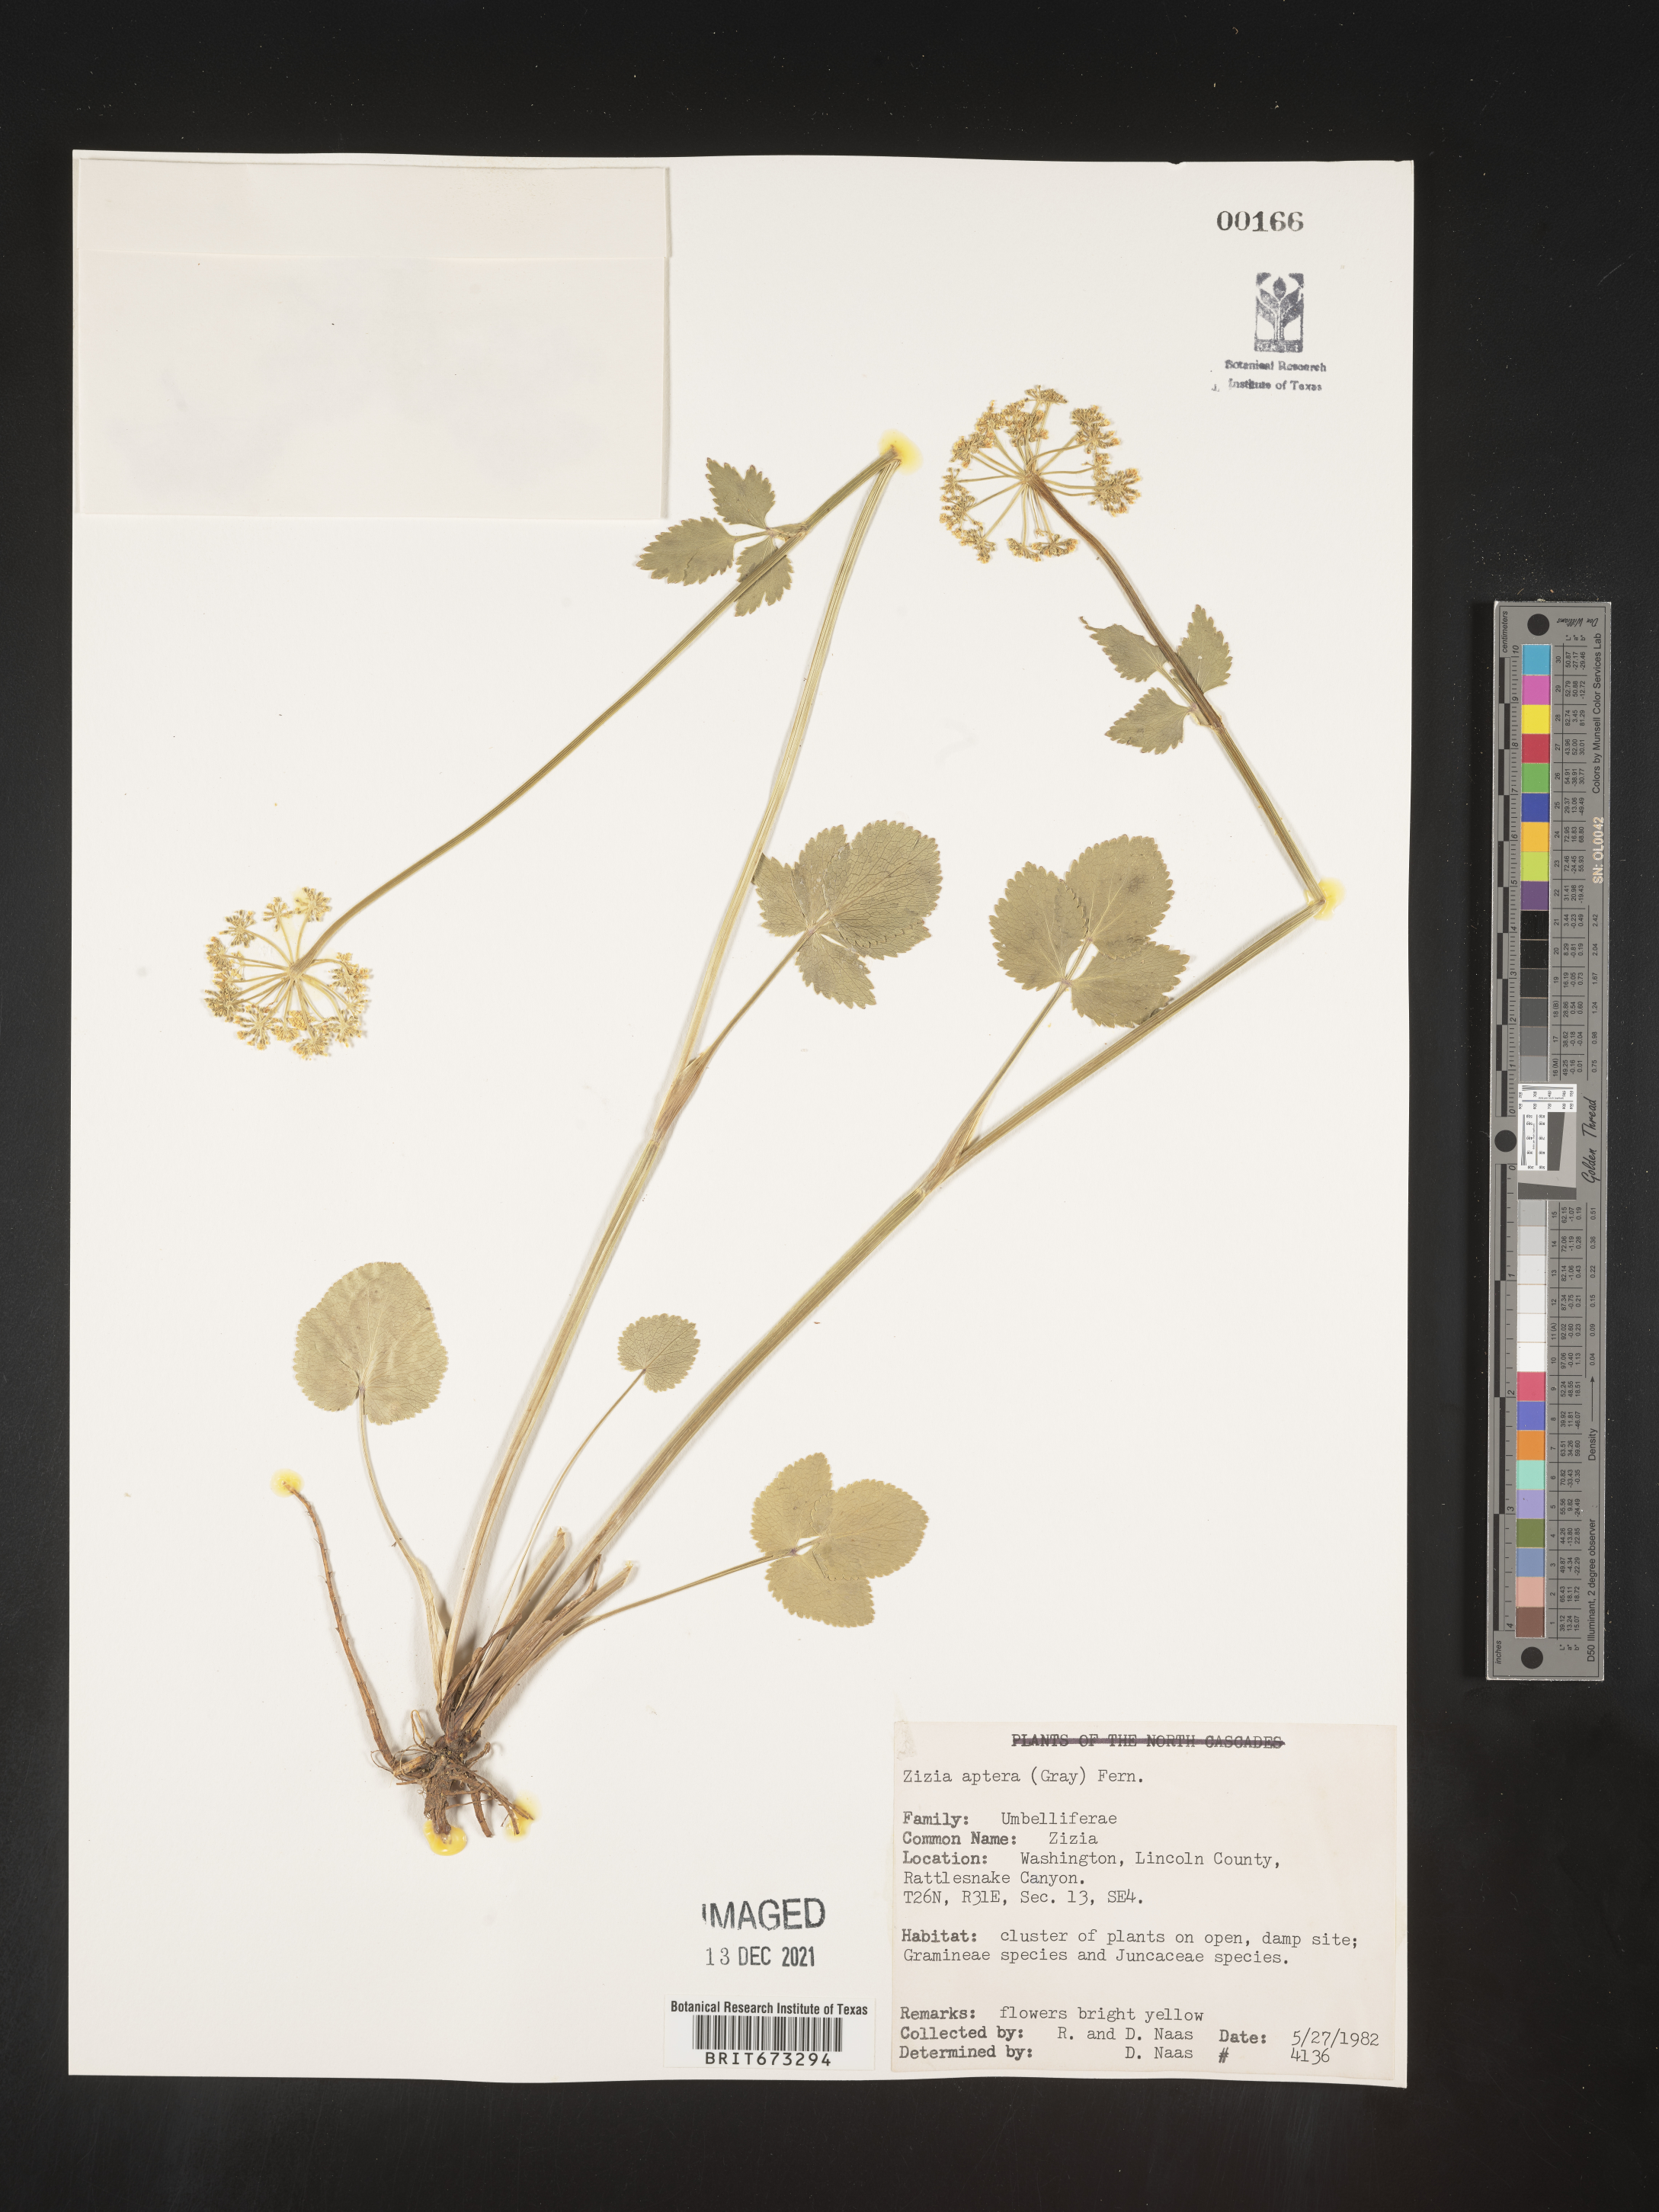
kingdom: Plantae
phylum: Tracheophyta
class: Magnoliopsida
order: Apiales
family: Apiaceae
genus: Zizia
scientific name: Zizia aptera
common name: Heart-leaved alexanders
